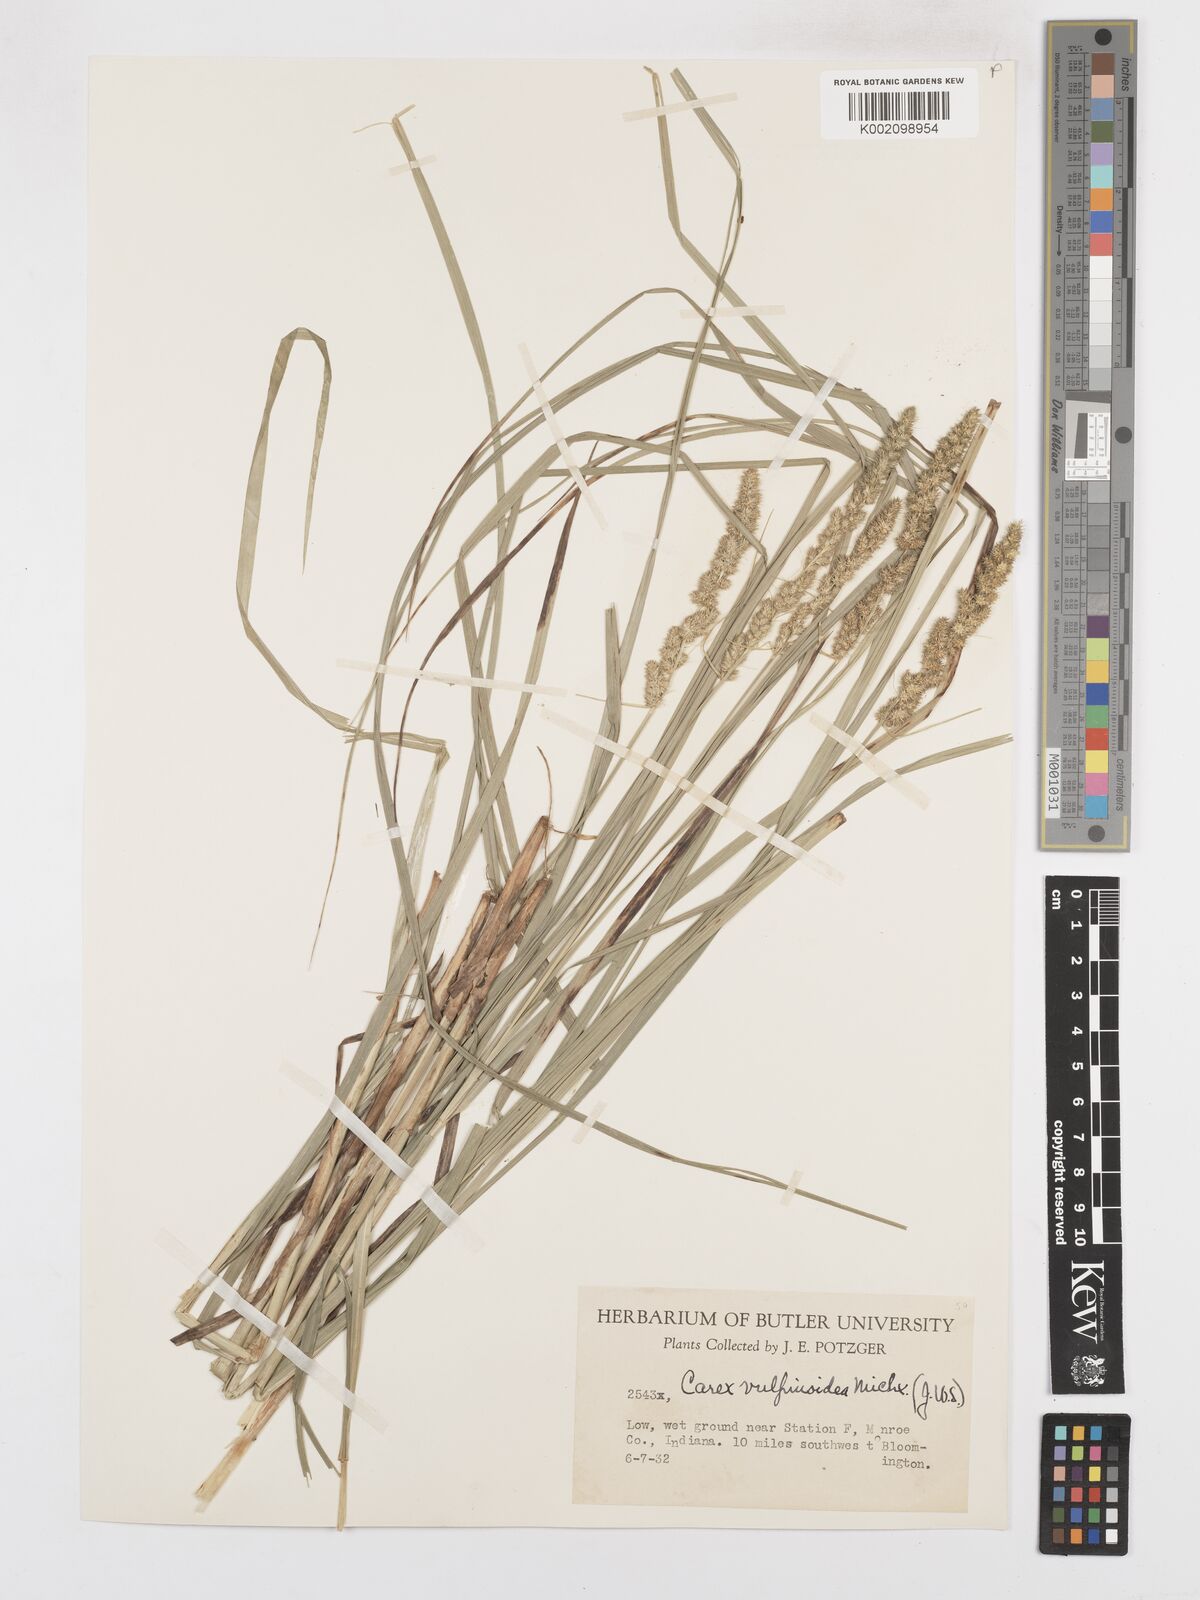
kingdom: Plantae
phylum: Tracheophyta
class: Liliopsida
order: Poales
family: Cyperaceae
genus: Carex
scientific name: Carex vulpinoidea
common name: American fox-sedge
